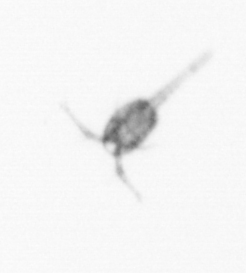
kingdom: Animalia
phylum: Arthropoda
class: Copepoda
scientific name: Copepoda
